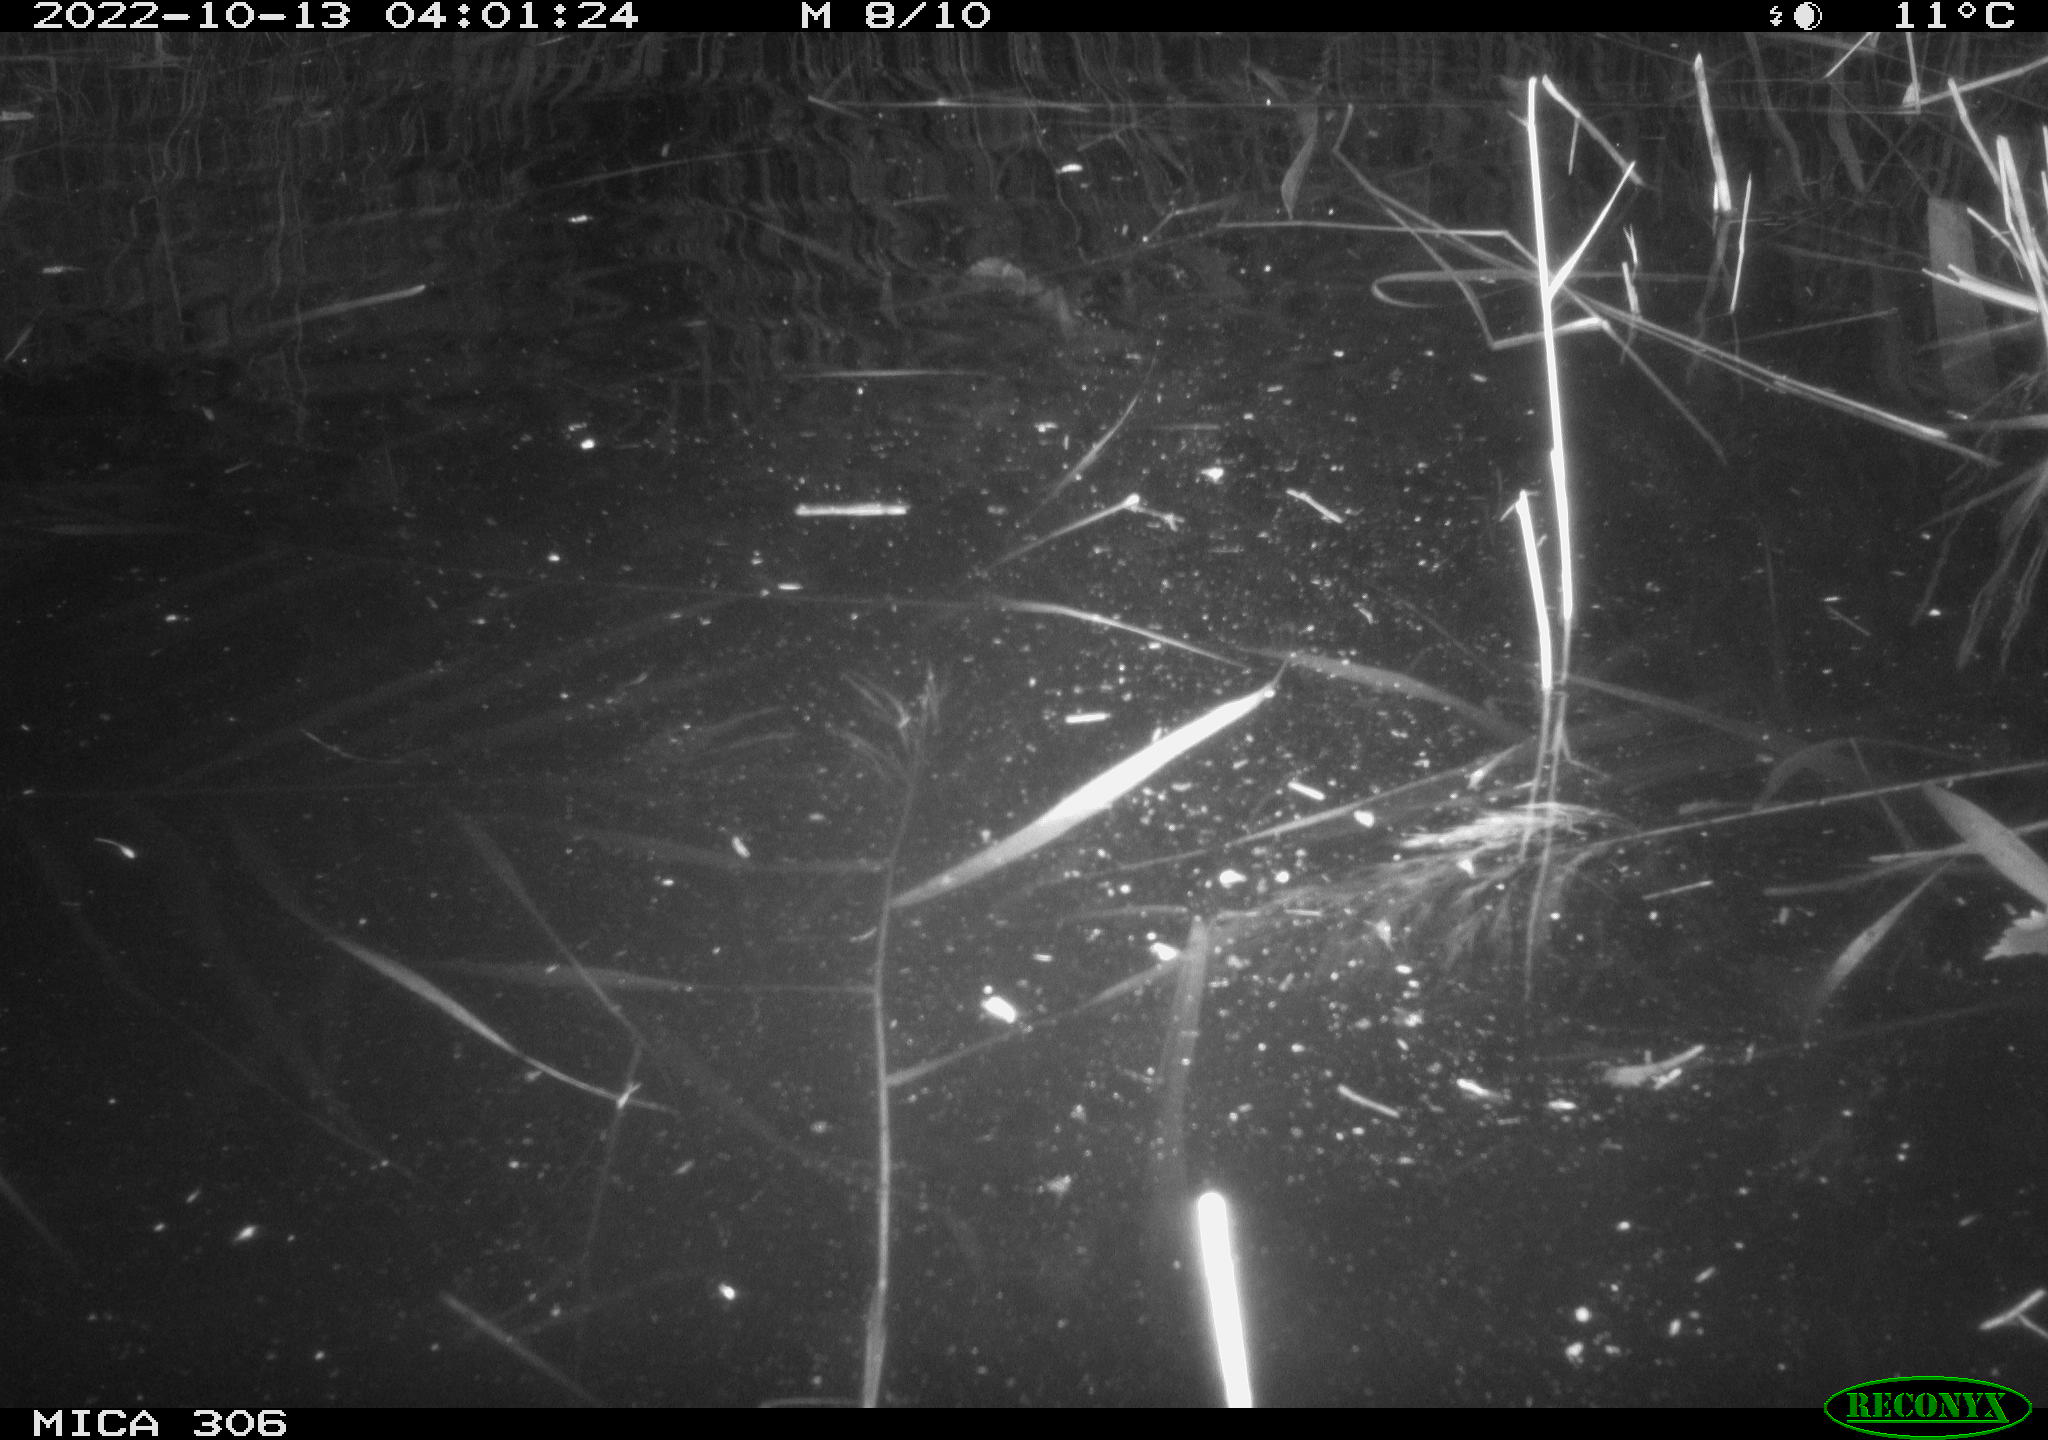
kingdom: Animalia
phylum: Chordata
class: Mammalia
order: Rodentia
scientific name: Rodentia
